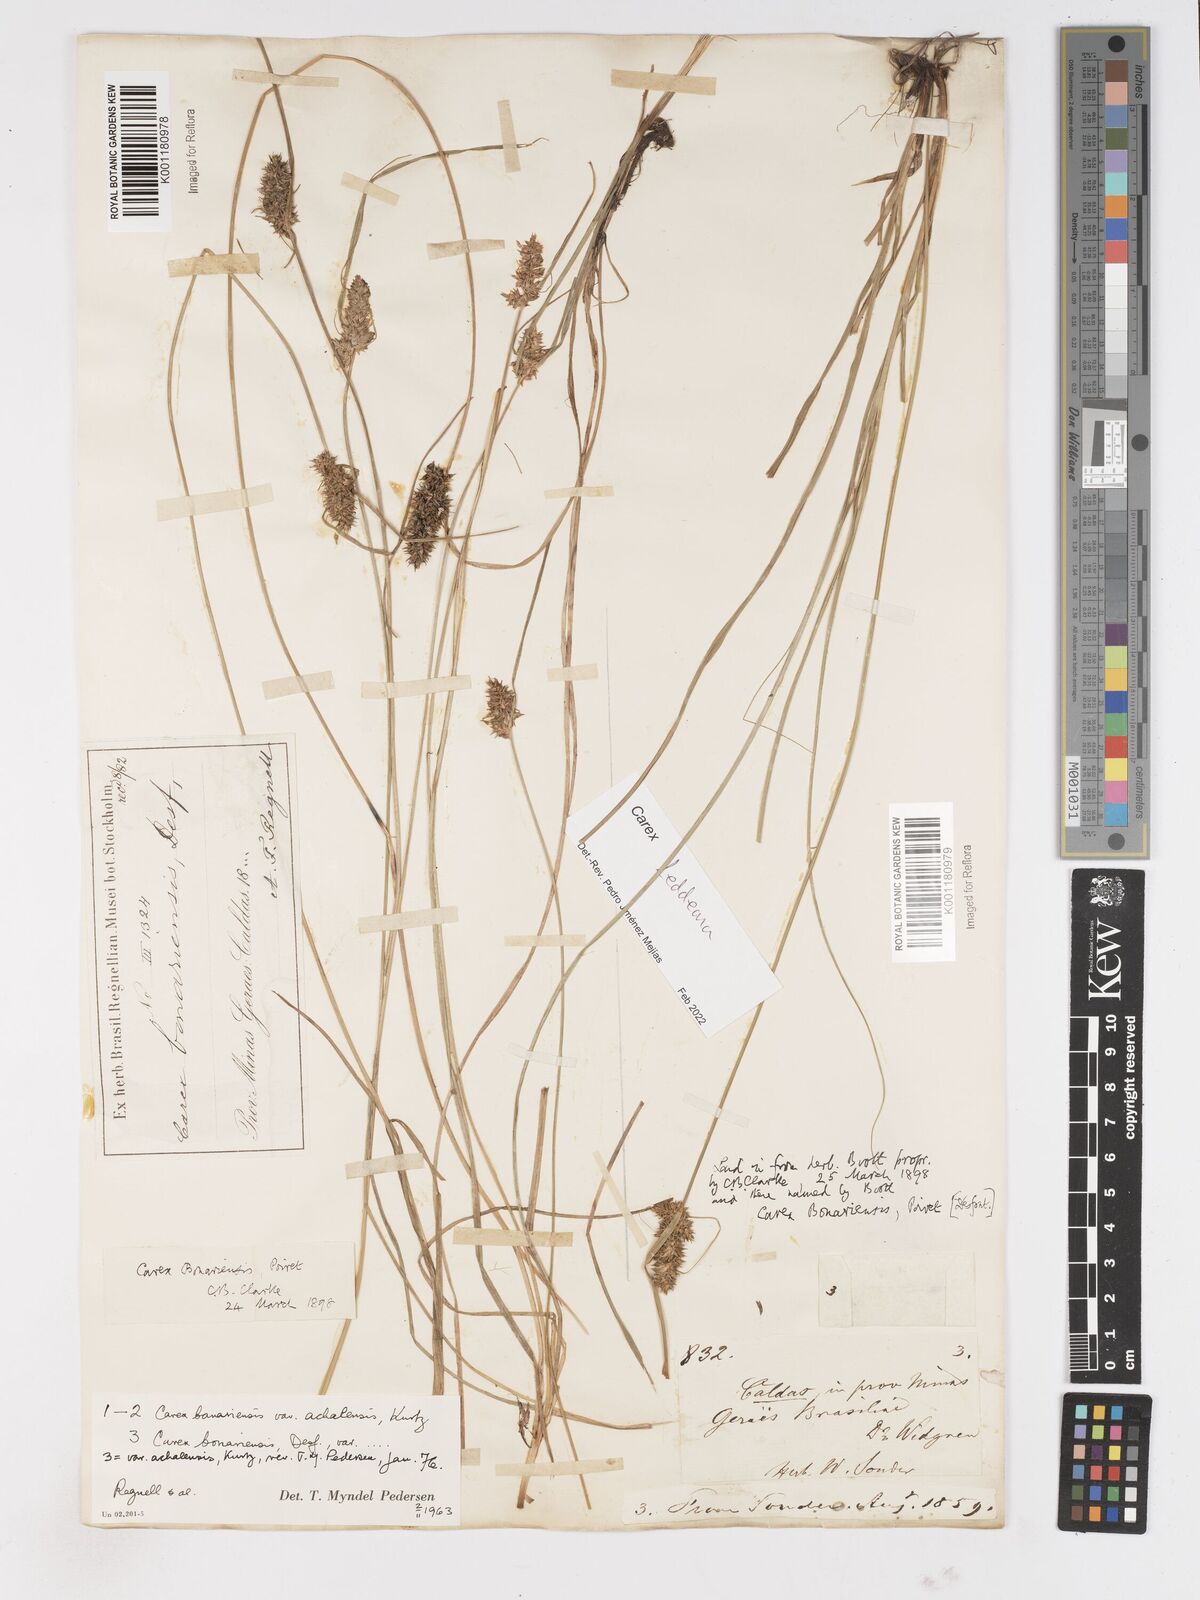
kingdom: Plantae
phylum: Tracheophyta
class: Liliopsida
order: Poales
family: Cyperaceae
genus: Carex
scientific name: Carex bonariensis
